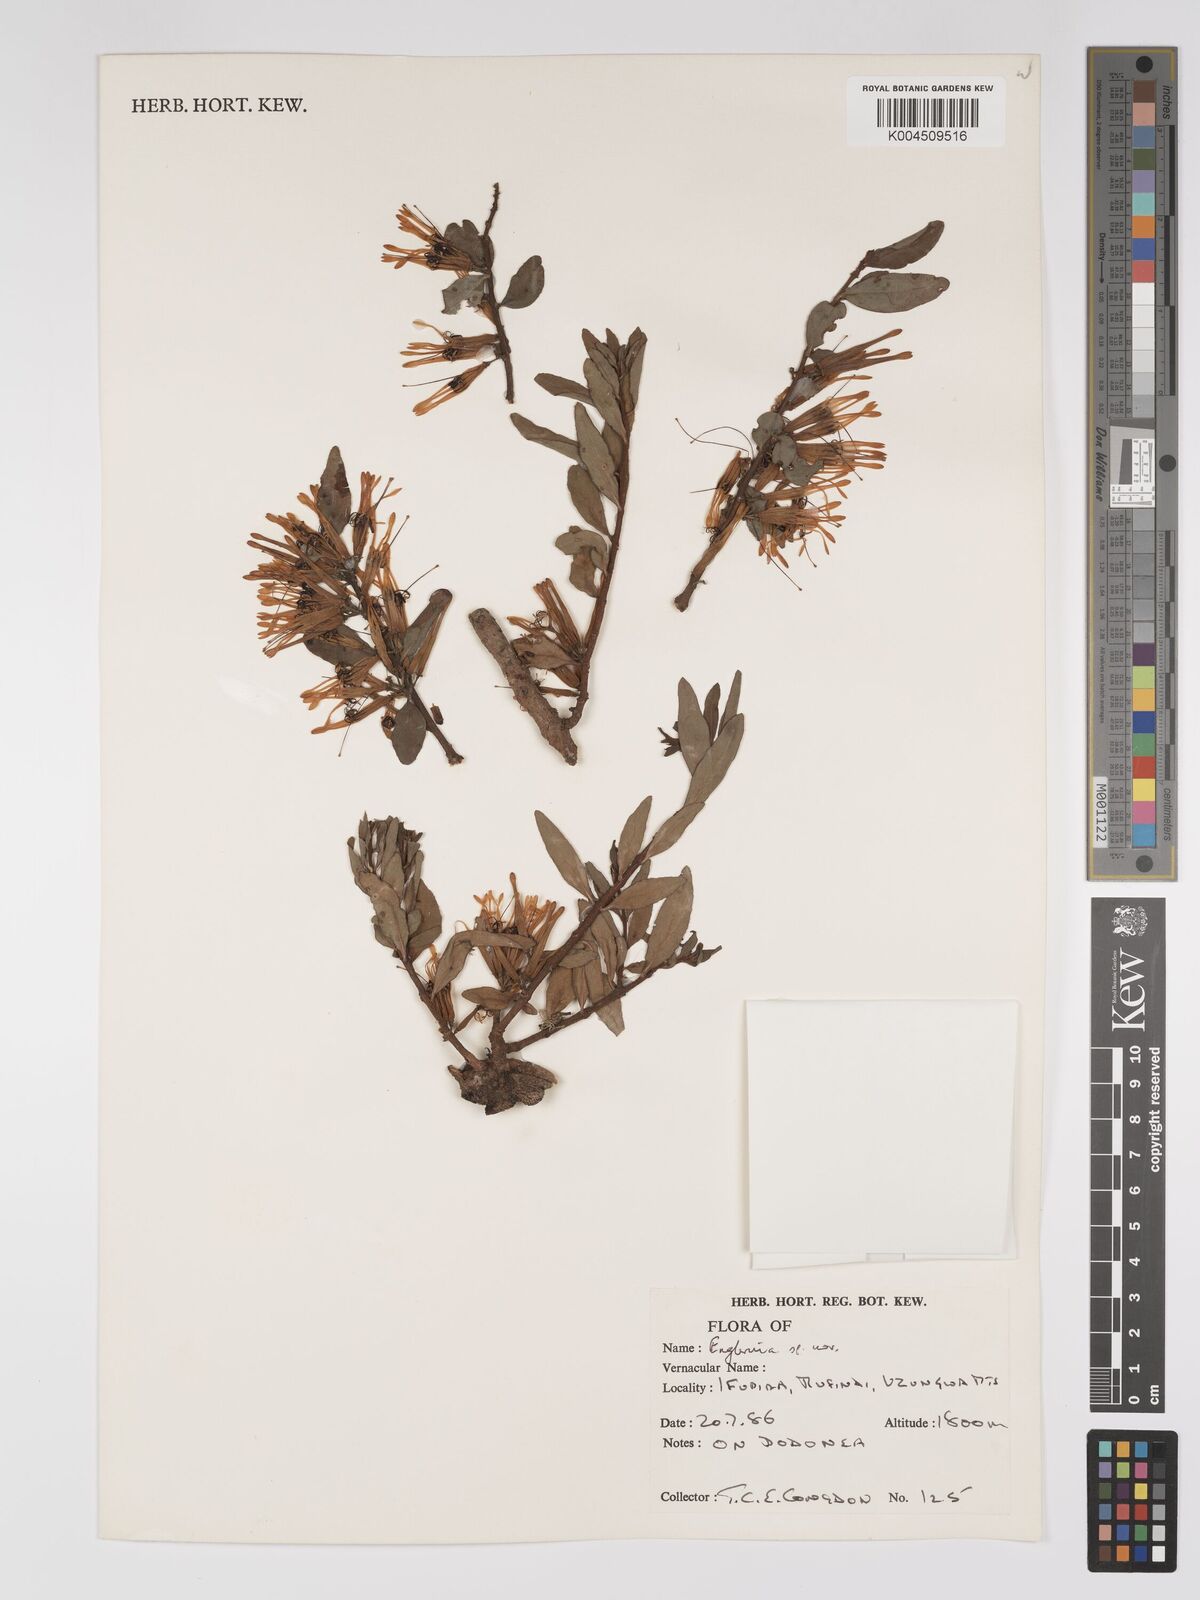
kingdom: Plantae
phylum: Tracheophyta
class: Magnoliopsida
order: Santalales
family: Loranthaceae
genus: Englerina
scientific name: Englerina inaequilatera
